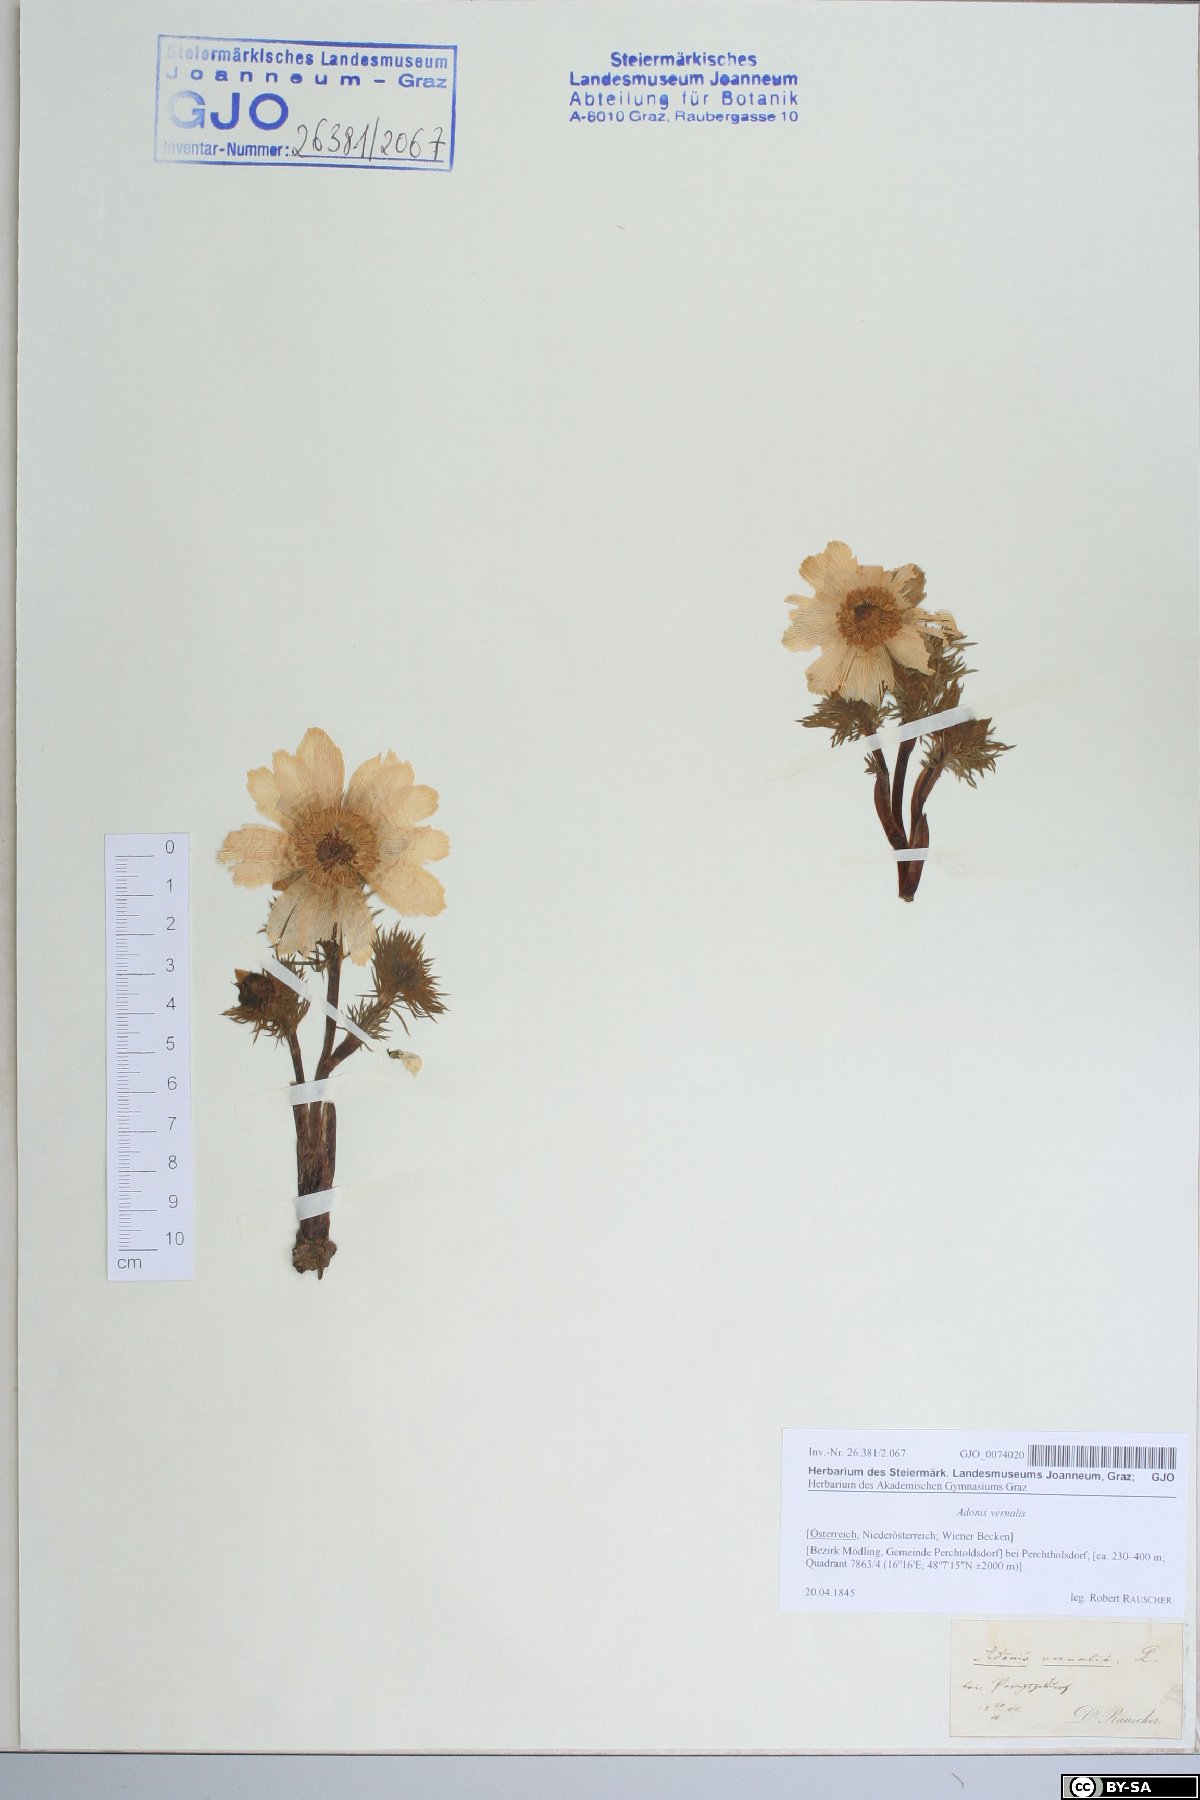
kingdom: Plantae
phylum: Tracheophyta
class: Magnoliopsida
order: Ranunculales
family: Ranunculaceae
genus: Adonis
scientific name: Adonis vernalis
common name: Yellow pheasants-eye
